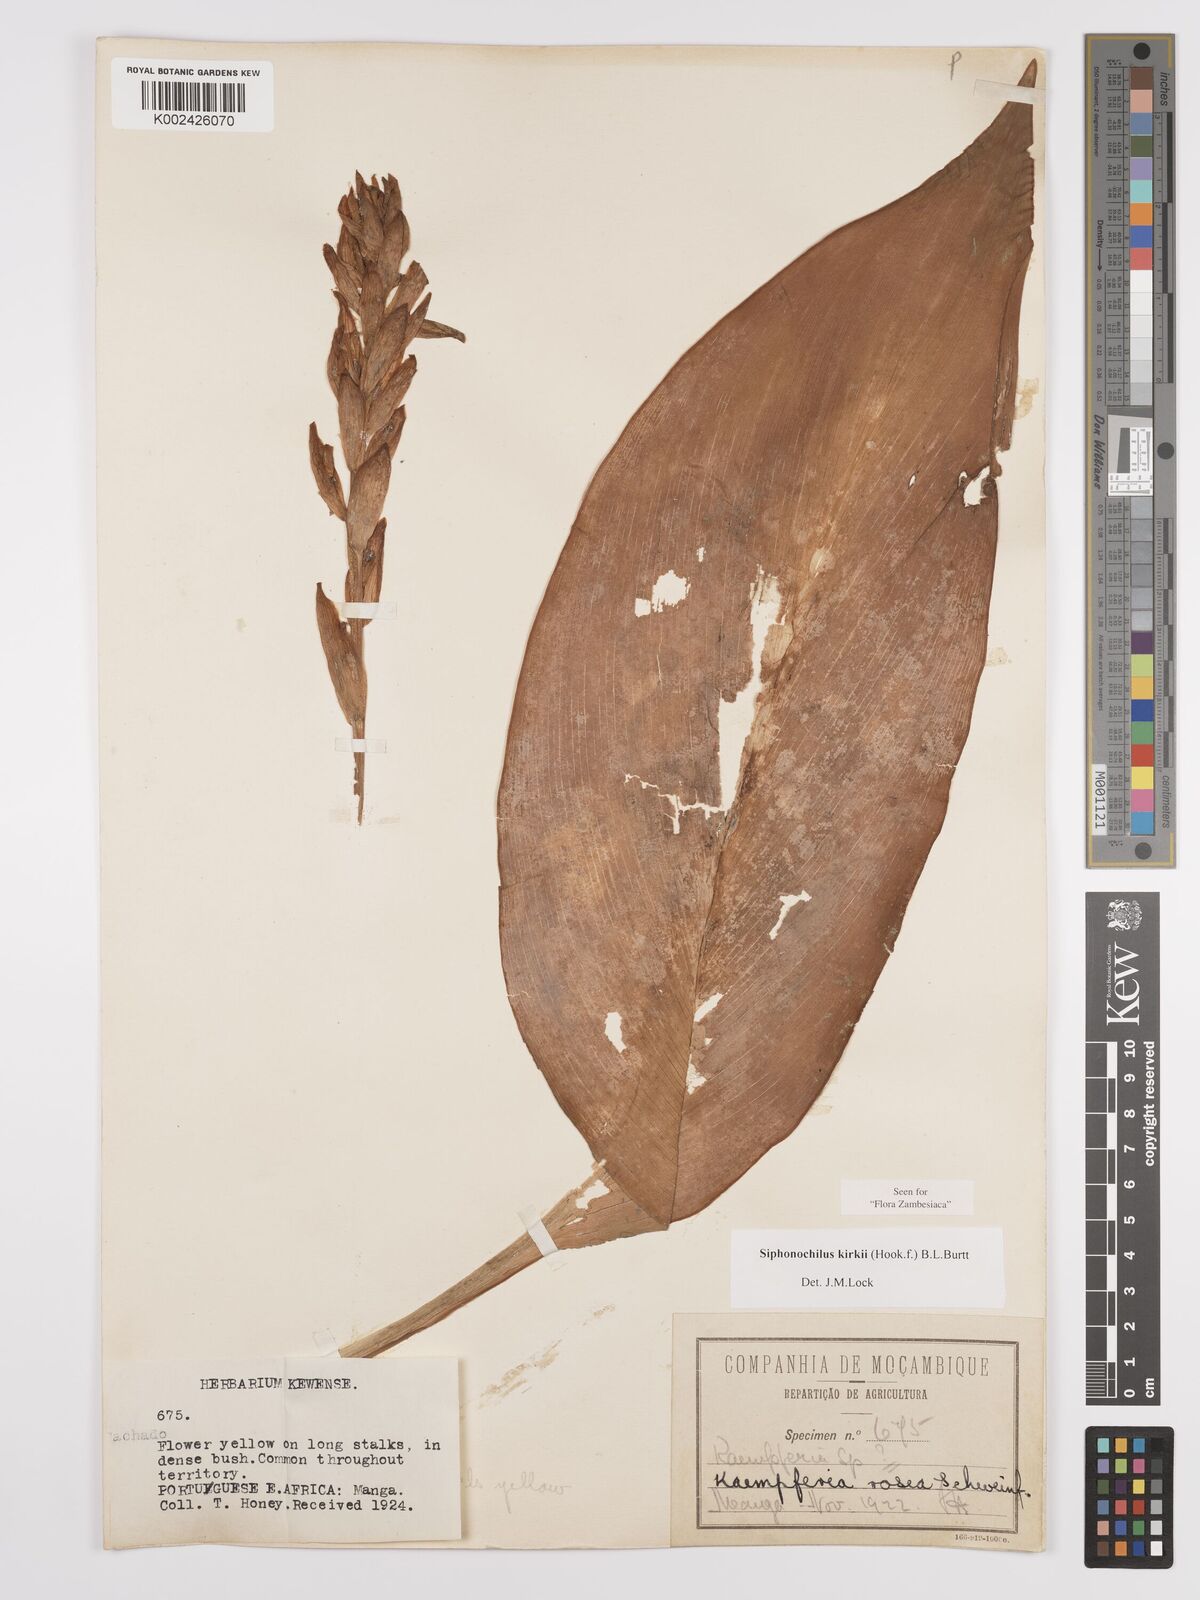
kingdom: Plantae
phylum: Tracheophyta
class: Liliopsida
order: Zingiberales
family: Zingiberaceae
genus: Siphonochilus
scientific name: Siphonochilus kirkii
